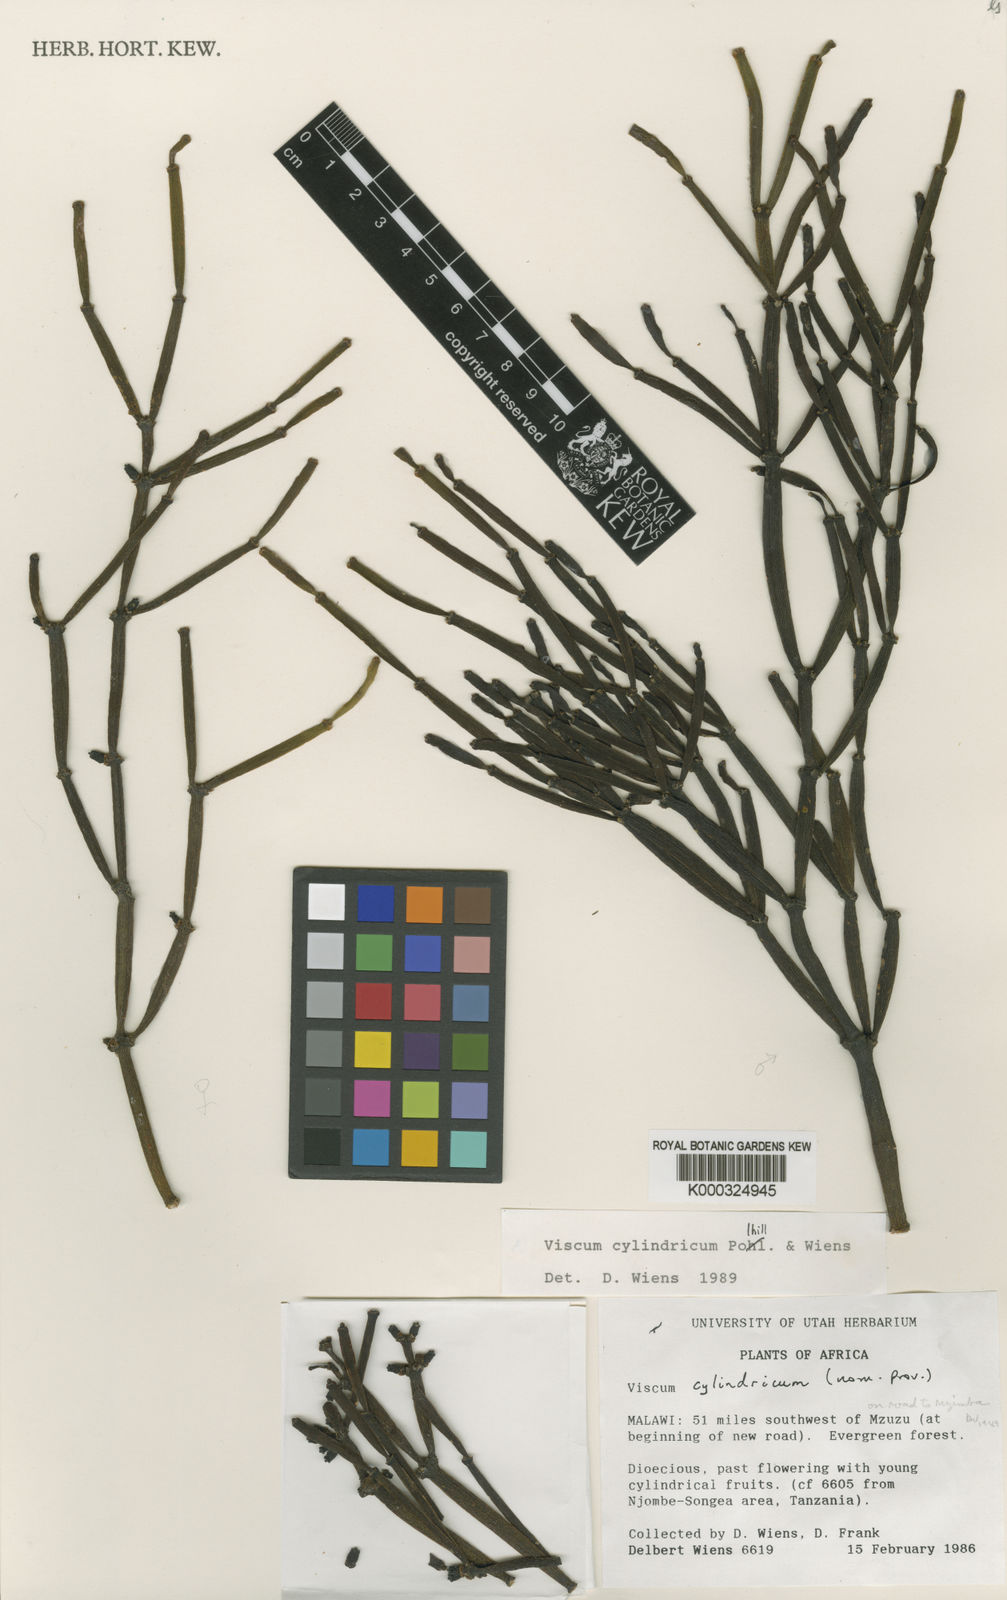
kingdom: Plantae
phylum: Tracheophyta
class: Magnoliopsida
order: Santalales
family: Viscaceae
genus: Viscum
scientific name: Viscum cylindricum
